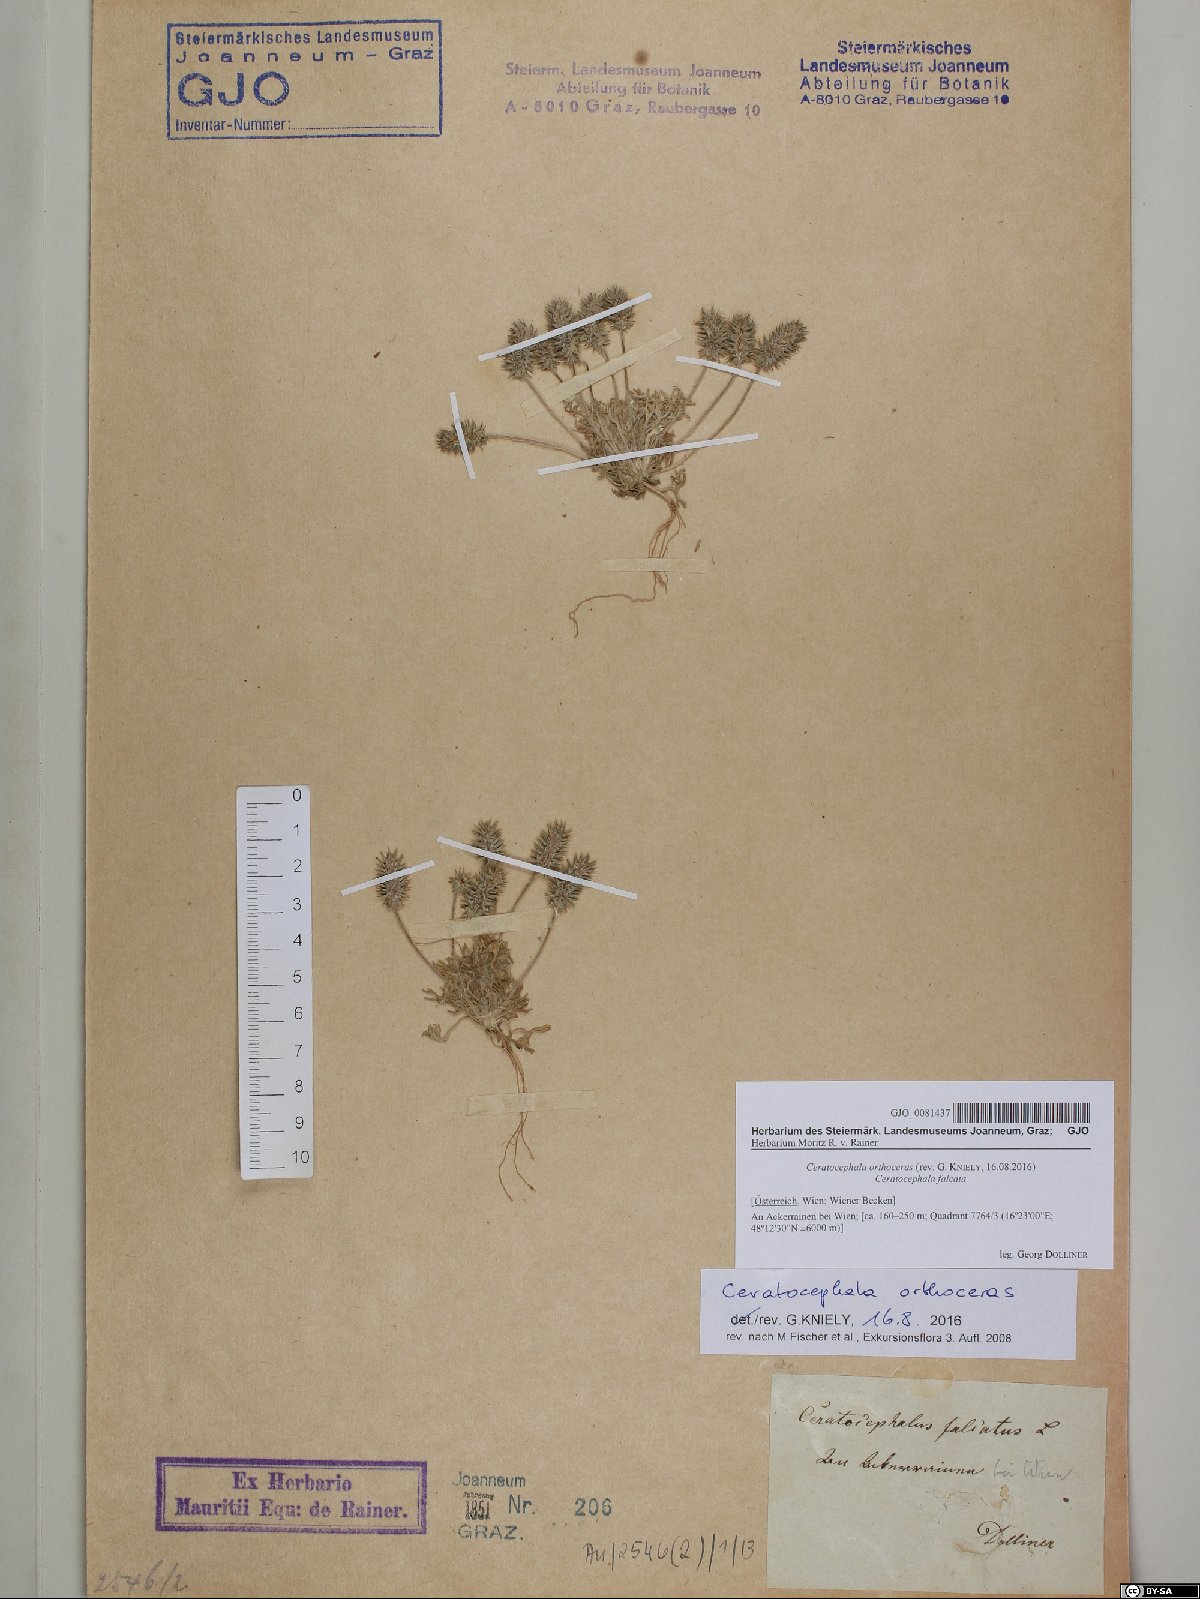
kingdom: Plantae
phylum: Tracheophyta
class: Magnoliopsida
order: Ranunculales
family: Ranunculaceae
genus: Ceratocephala
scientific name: Ceratocephala orthoceras
